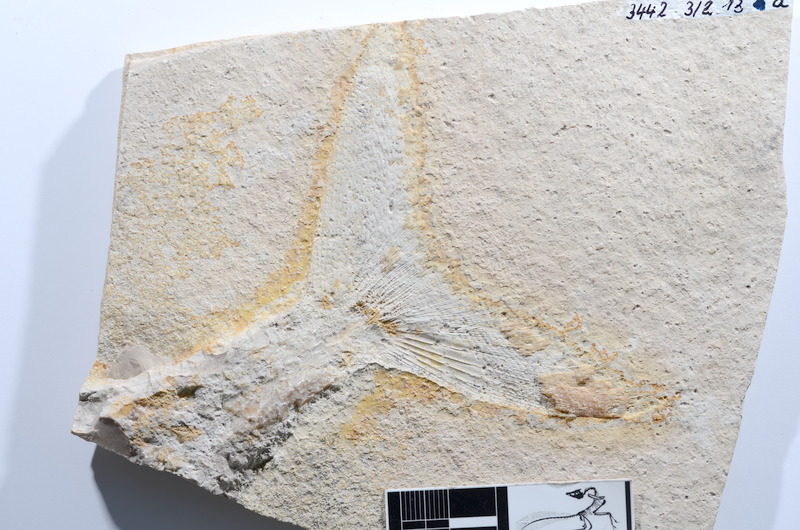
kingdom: Animalia
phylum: Chordata
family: Ankylophoridae
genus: Siemensichthys
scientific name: Siemensichthys macrocephalus
